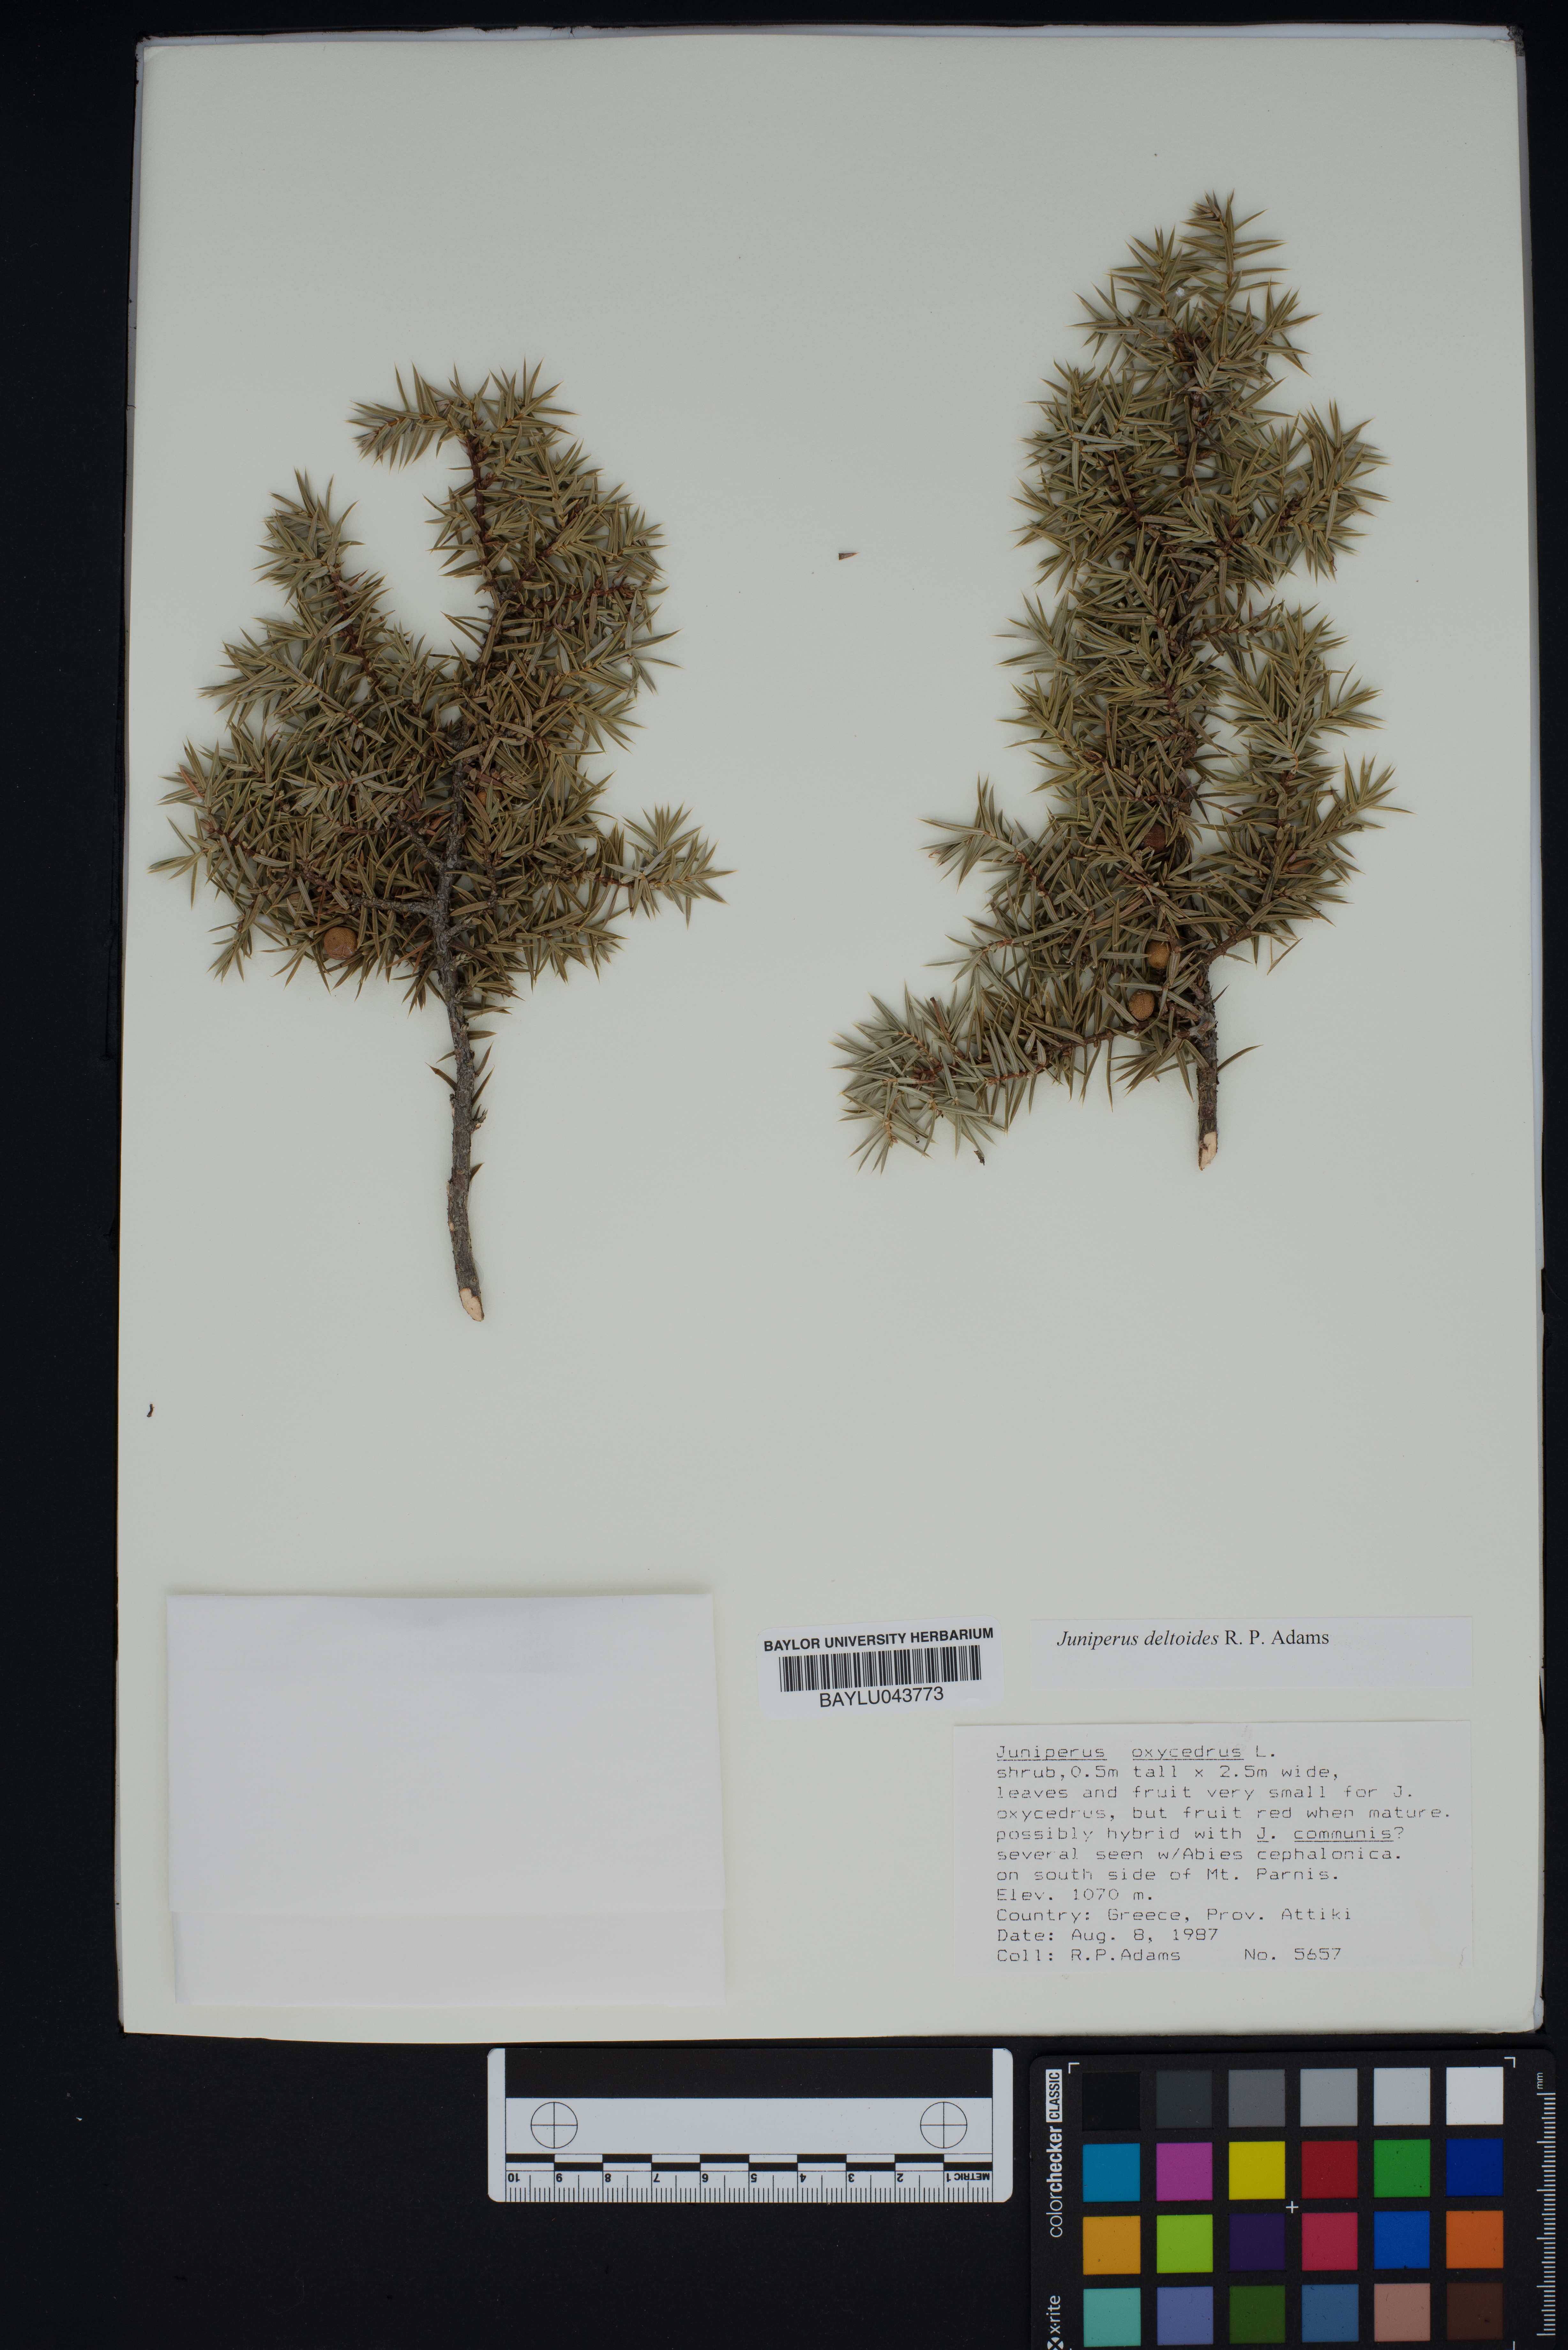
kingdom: Plantae
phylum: Tracheophyta
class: Pinopsida
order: Pinales
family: Cupressaceae
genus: Juniperus
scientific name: Juniperus oxycedrus
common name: Prickly juniper
